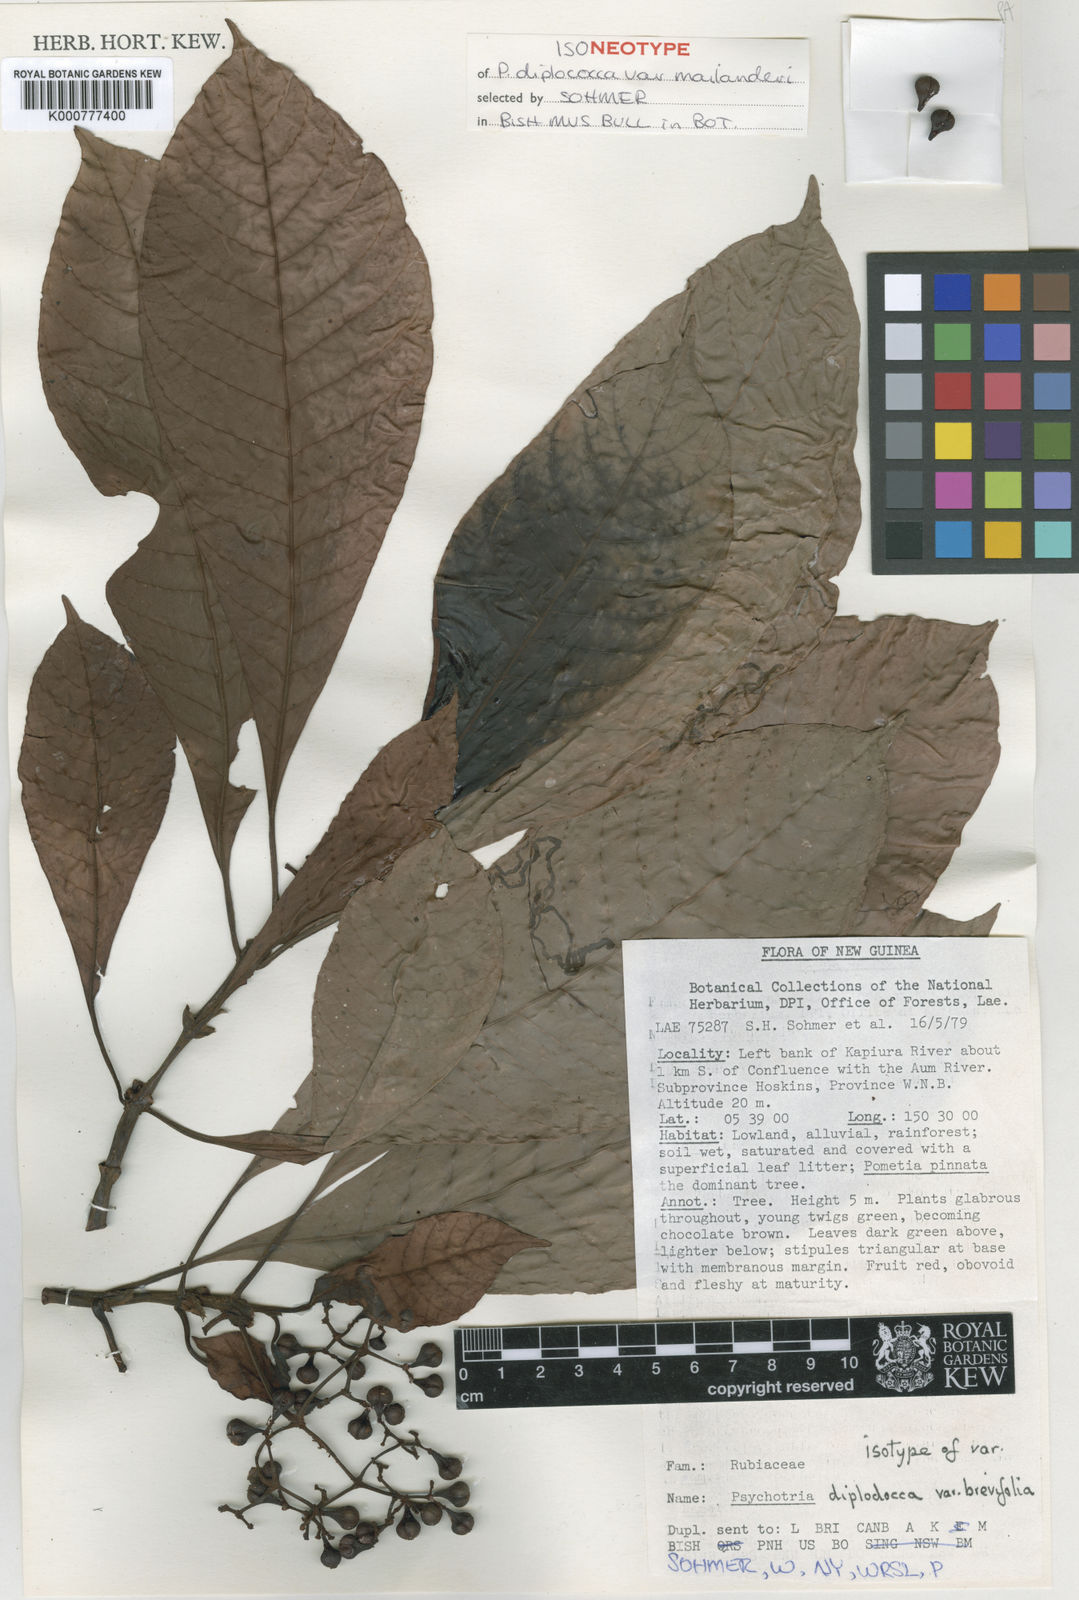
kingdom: Plantae
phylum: Tracheophyta
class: Magnoliopsida
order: Gentianales
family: Rubiaceae
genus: Psychotria
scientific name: Psychotria diplococca
